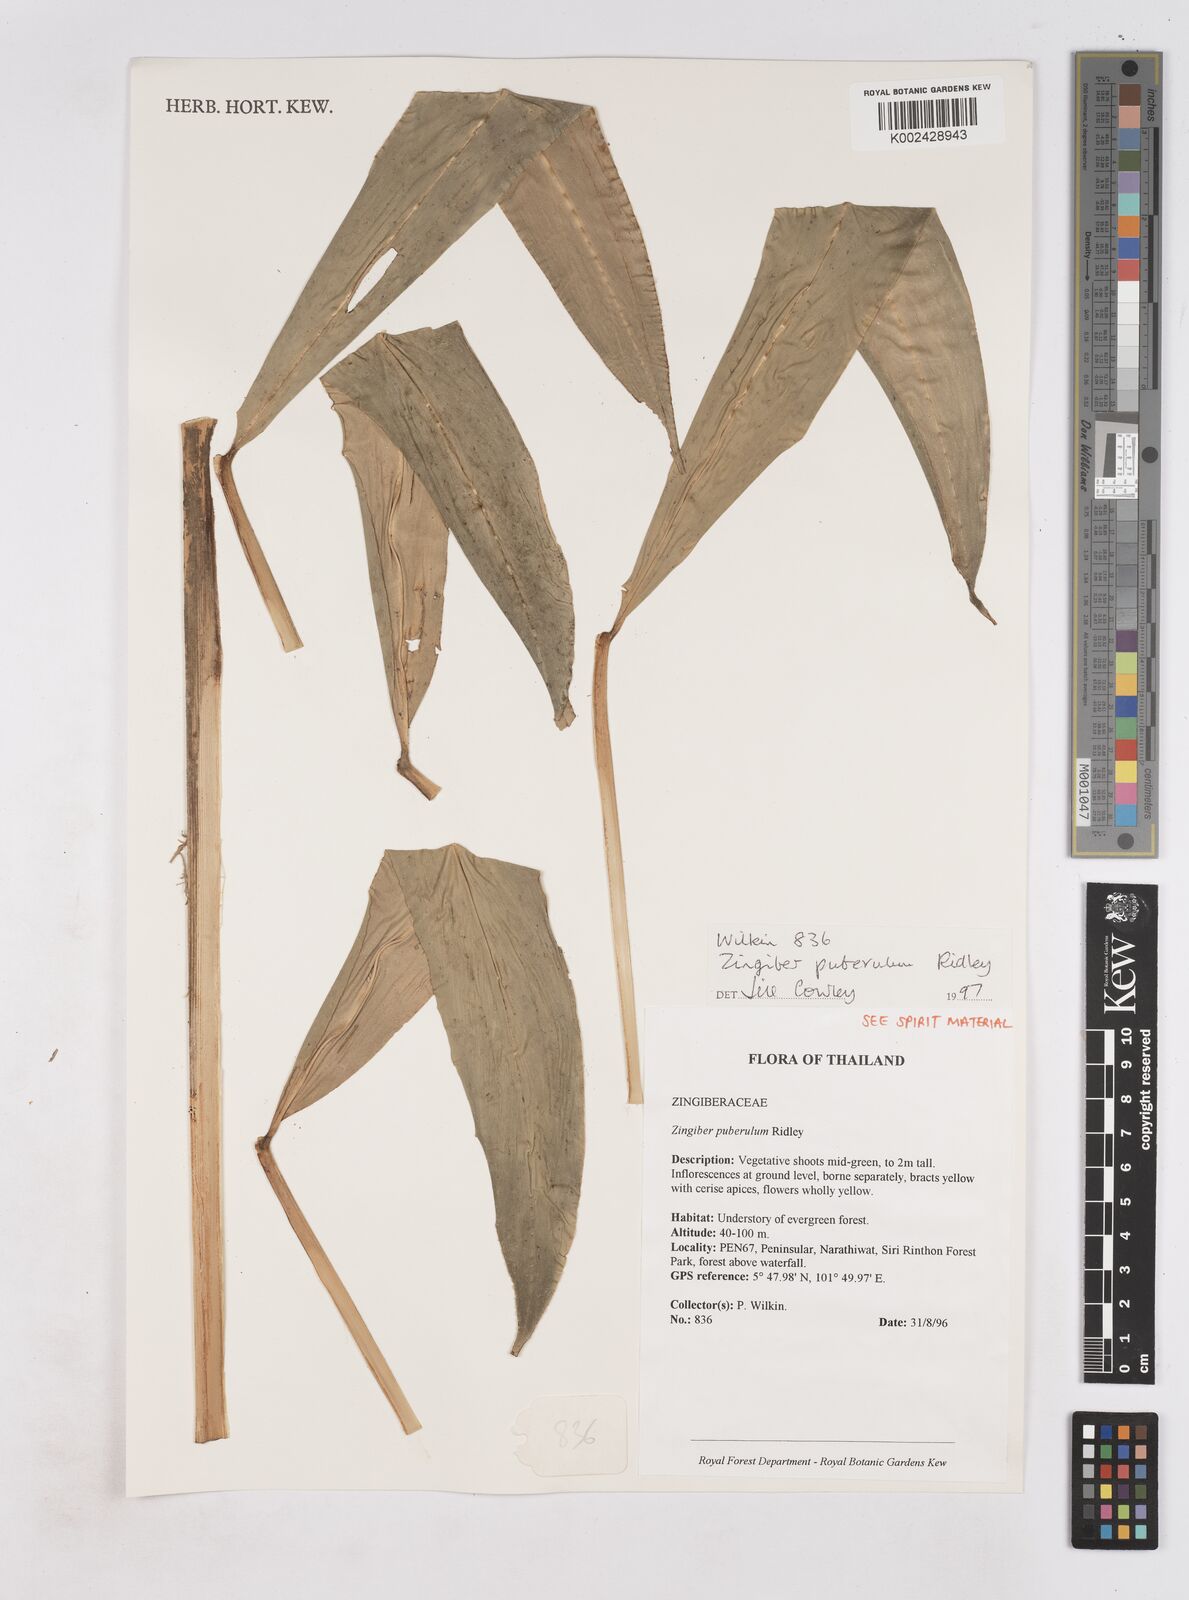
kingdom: Plantae
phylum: Tracheophyta
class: Liliopsida
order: Zingiberales
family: Zingiberaceae
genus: Zingiber
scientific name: Zingiber puberulum
